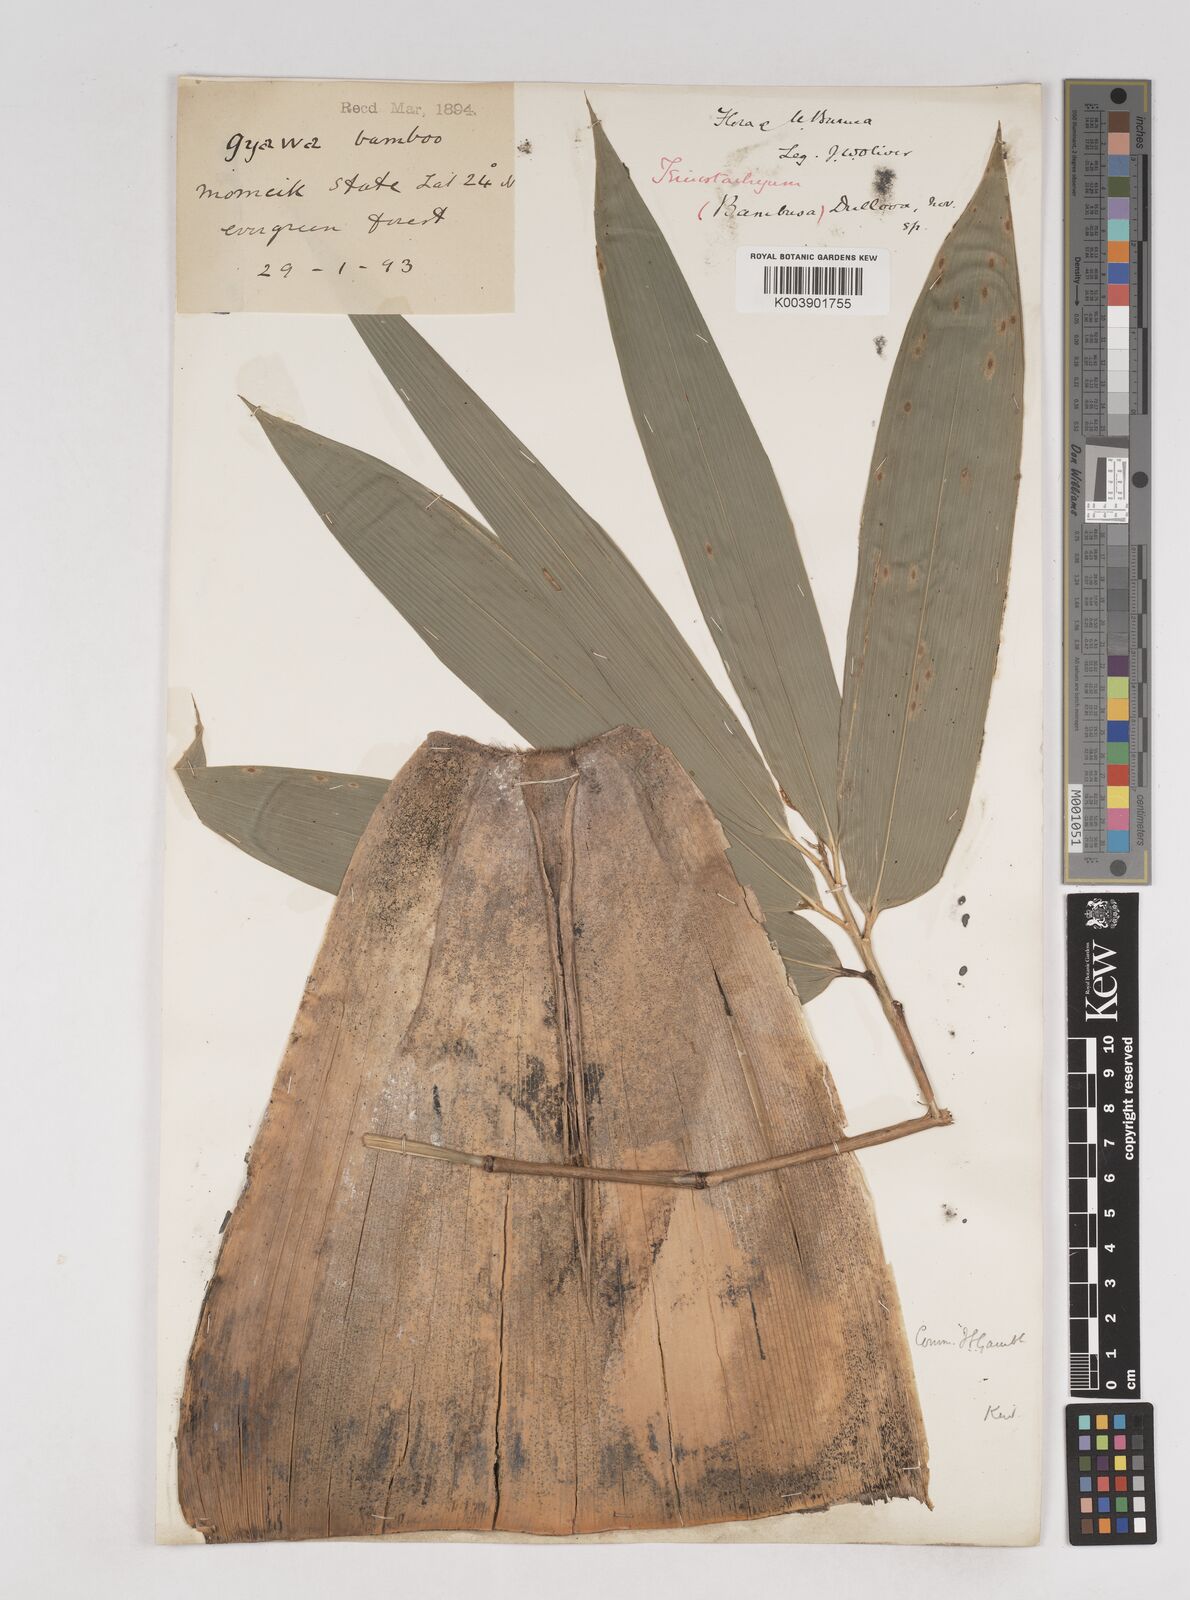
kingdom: Plantae
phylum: Tracheophyta
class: Liliopsida
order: Poales
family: Poaceae
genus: Schizostachyum
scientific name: Schizostachyum dullooa
